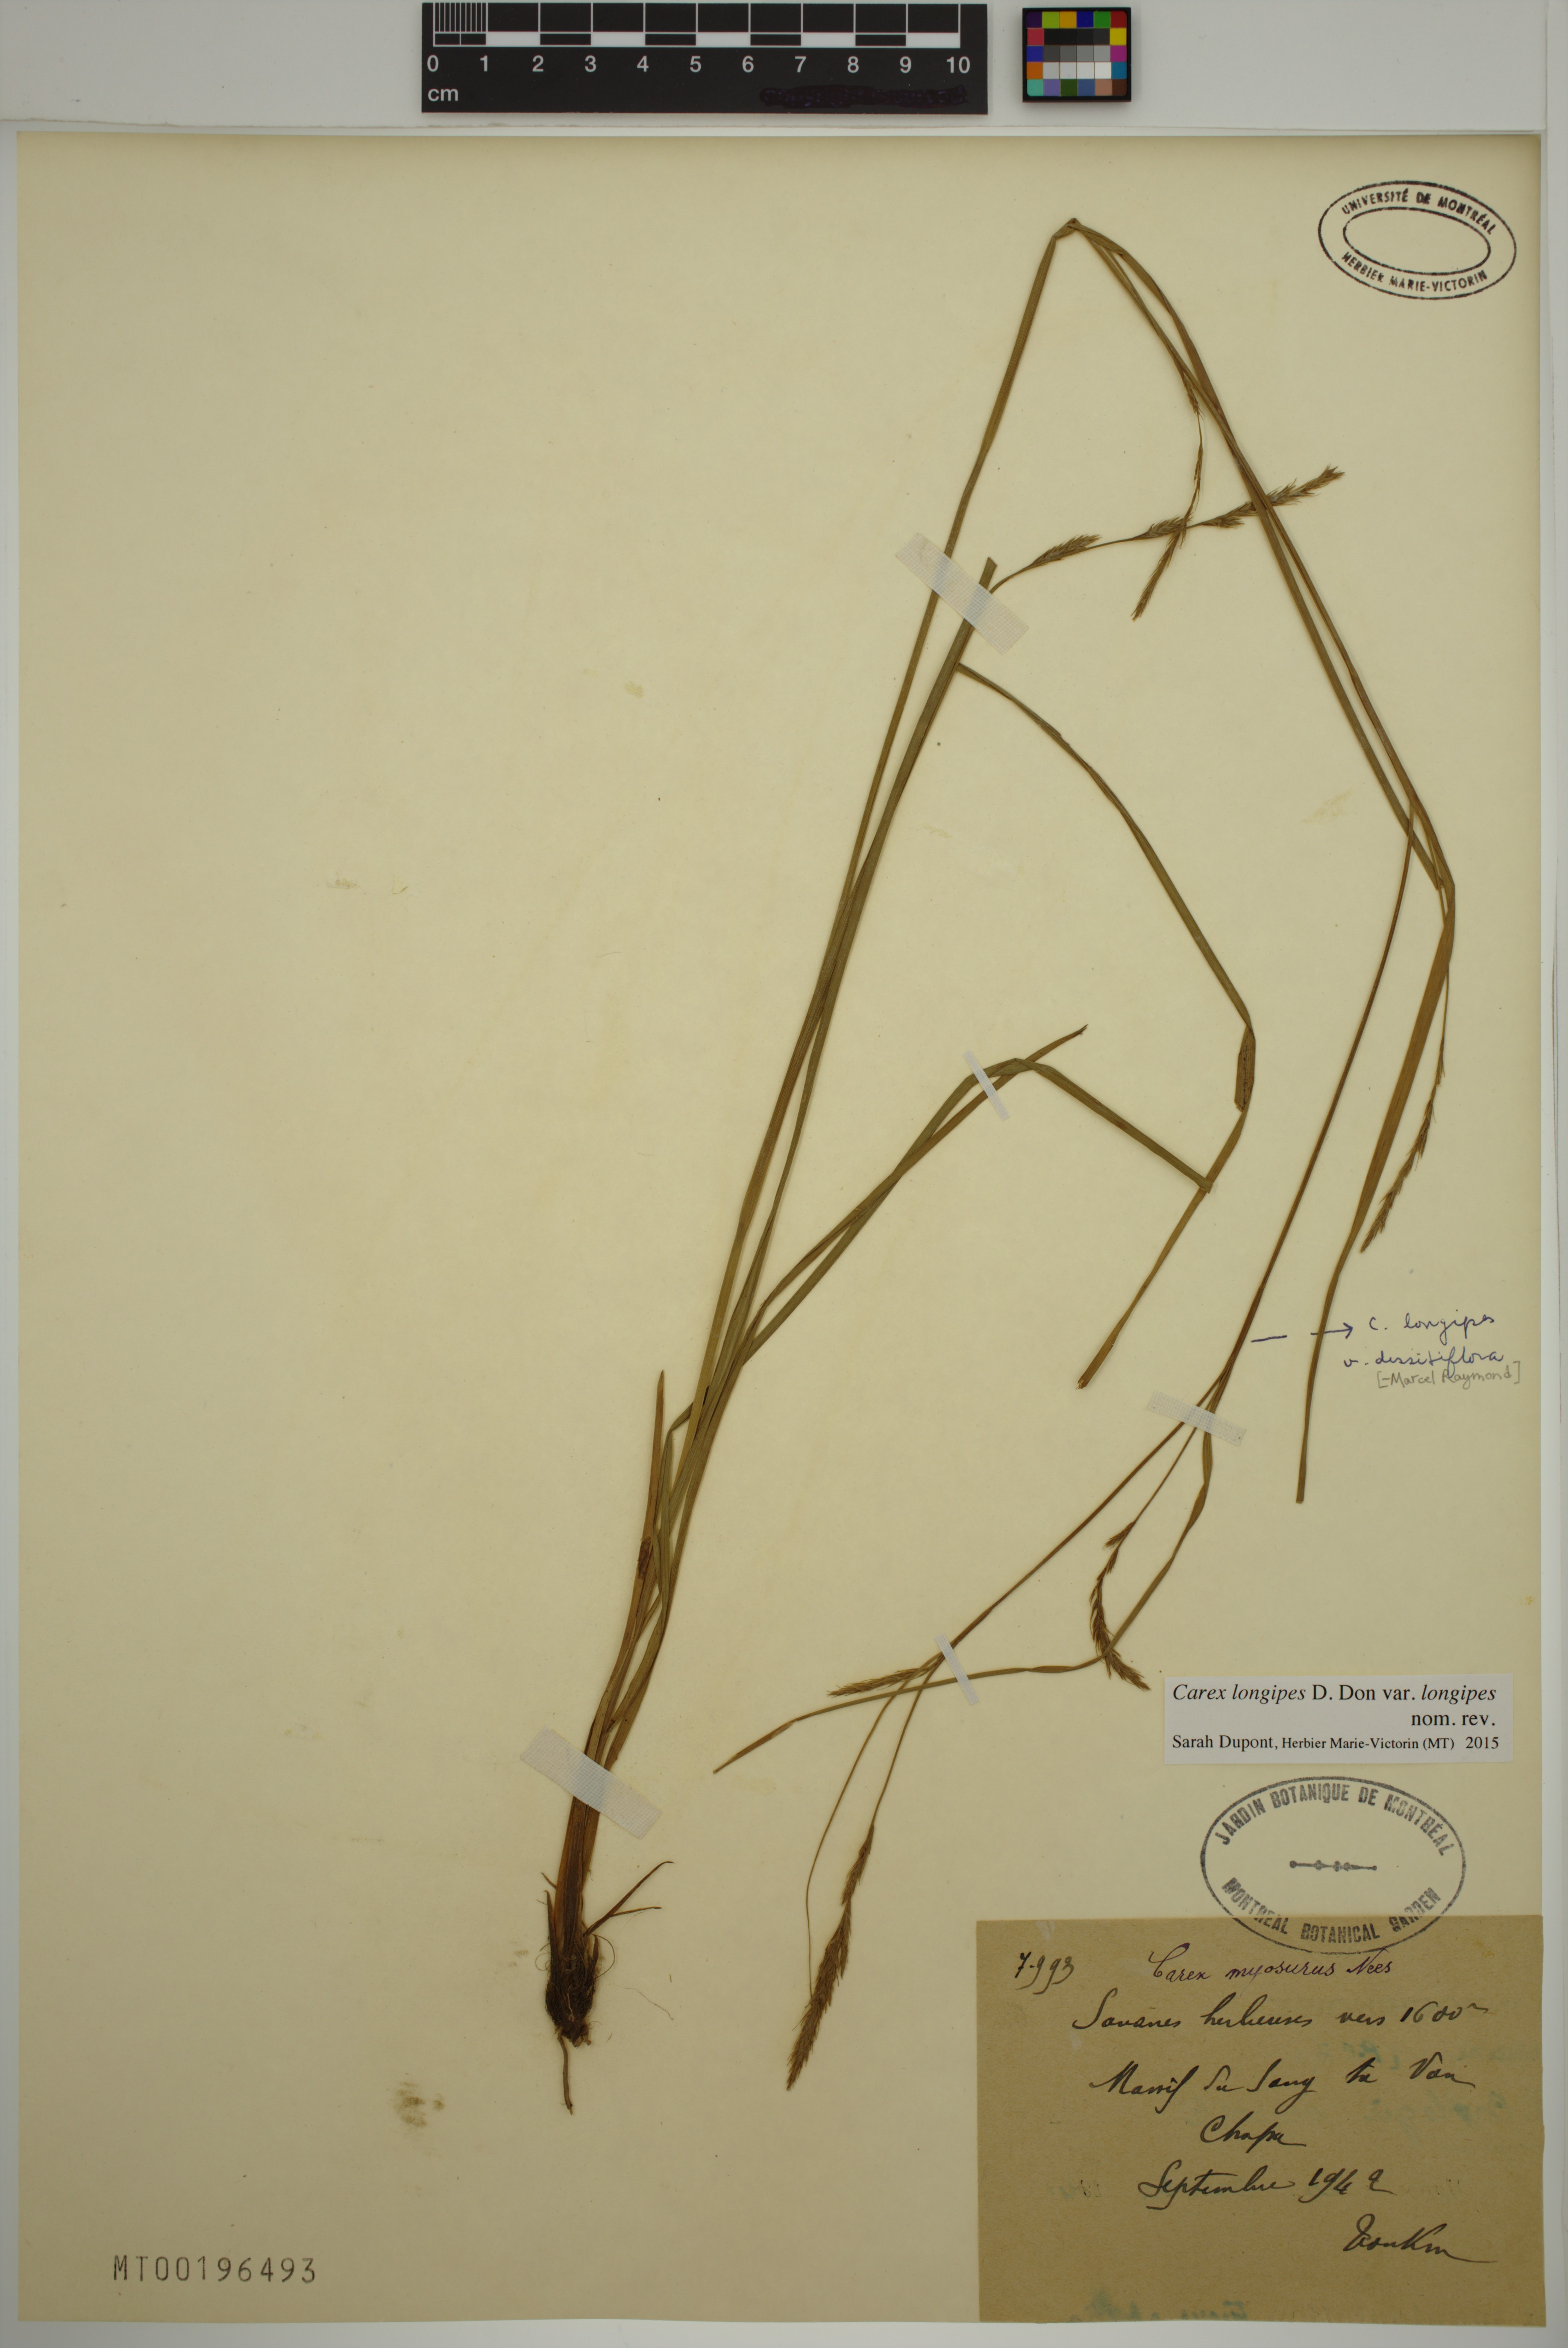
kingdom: Plantae
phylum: Tracheophyta
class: Liliopsida
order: Poales
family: Cyperaceae
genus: Carex
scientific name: Carex longipes
